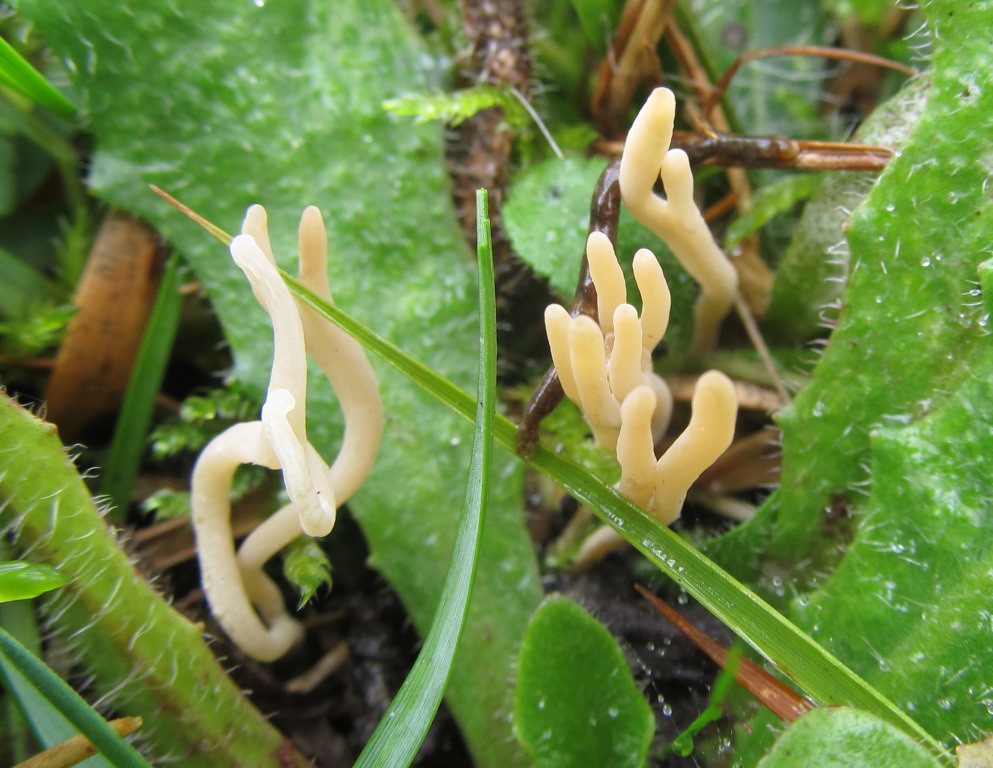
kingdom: Fungi
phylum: Basidiomycota
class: Agaricomycetes
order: Agaricales
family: Clavariaceae
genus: Ramariopsis
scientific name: Ramariopsis tenuicula
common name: spinkel køllesvamp
